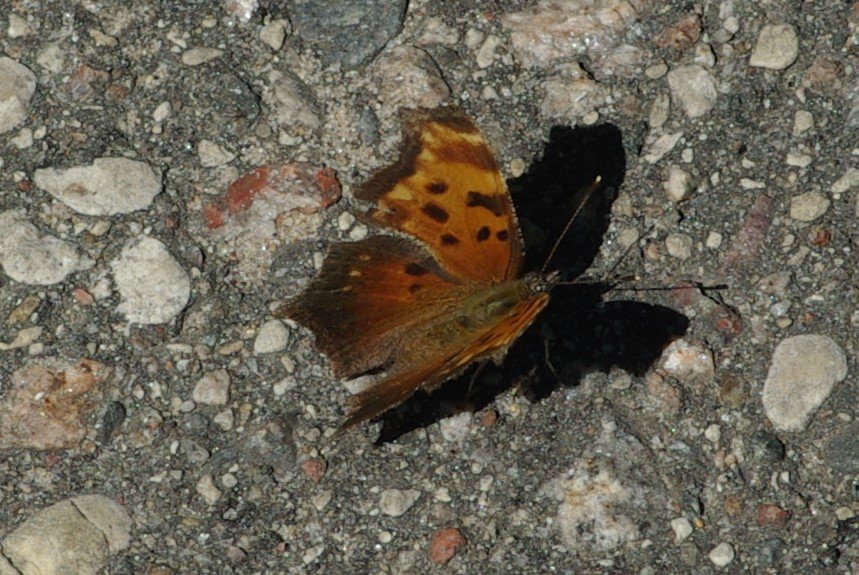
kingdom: Animalia
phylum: Arthropoda
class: Insecta
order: Lepidoptera
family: Nymphalidae
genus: Polygonia
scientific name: Polygonia progne
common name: Gray Comma
